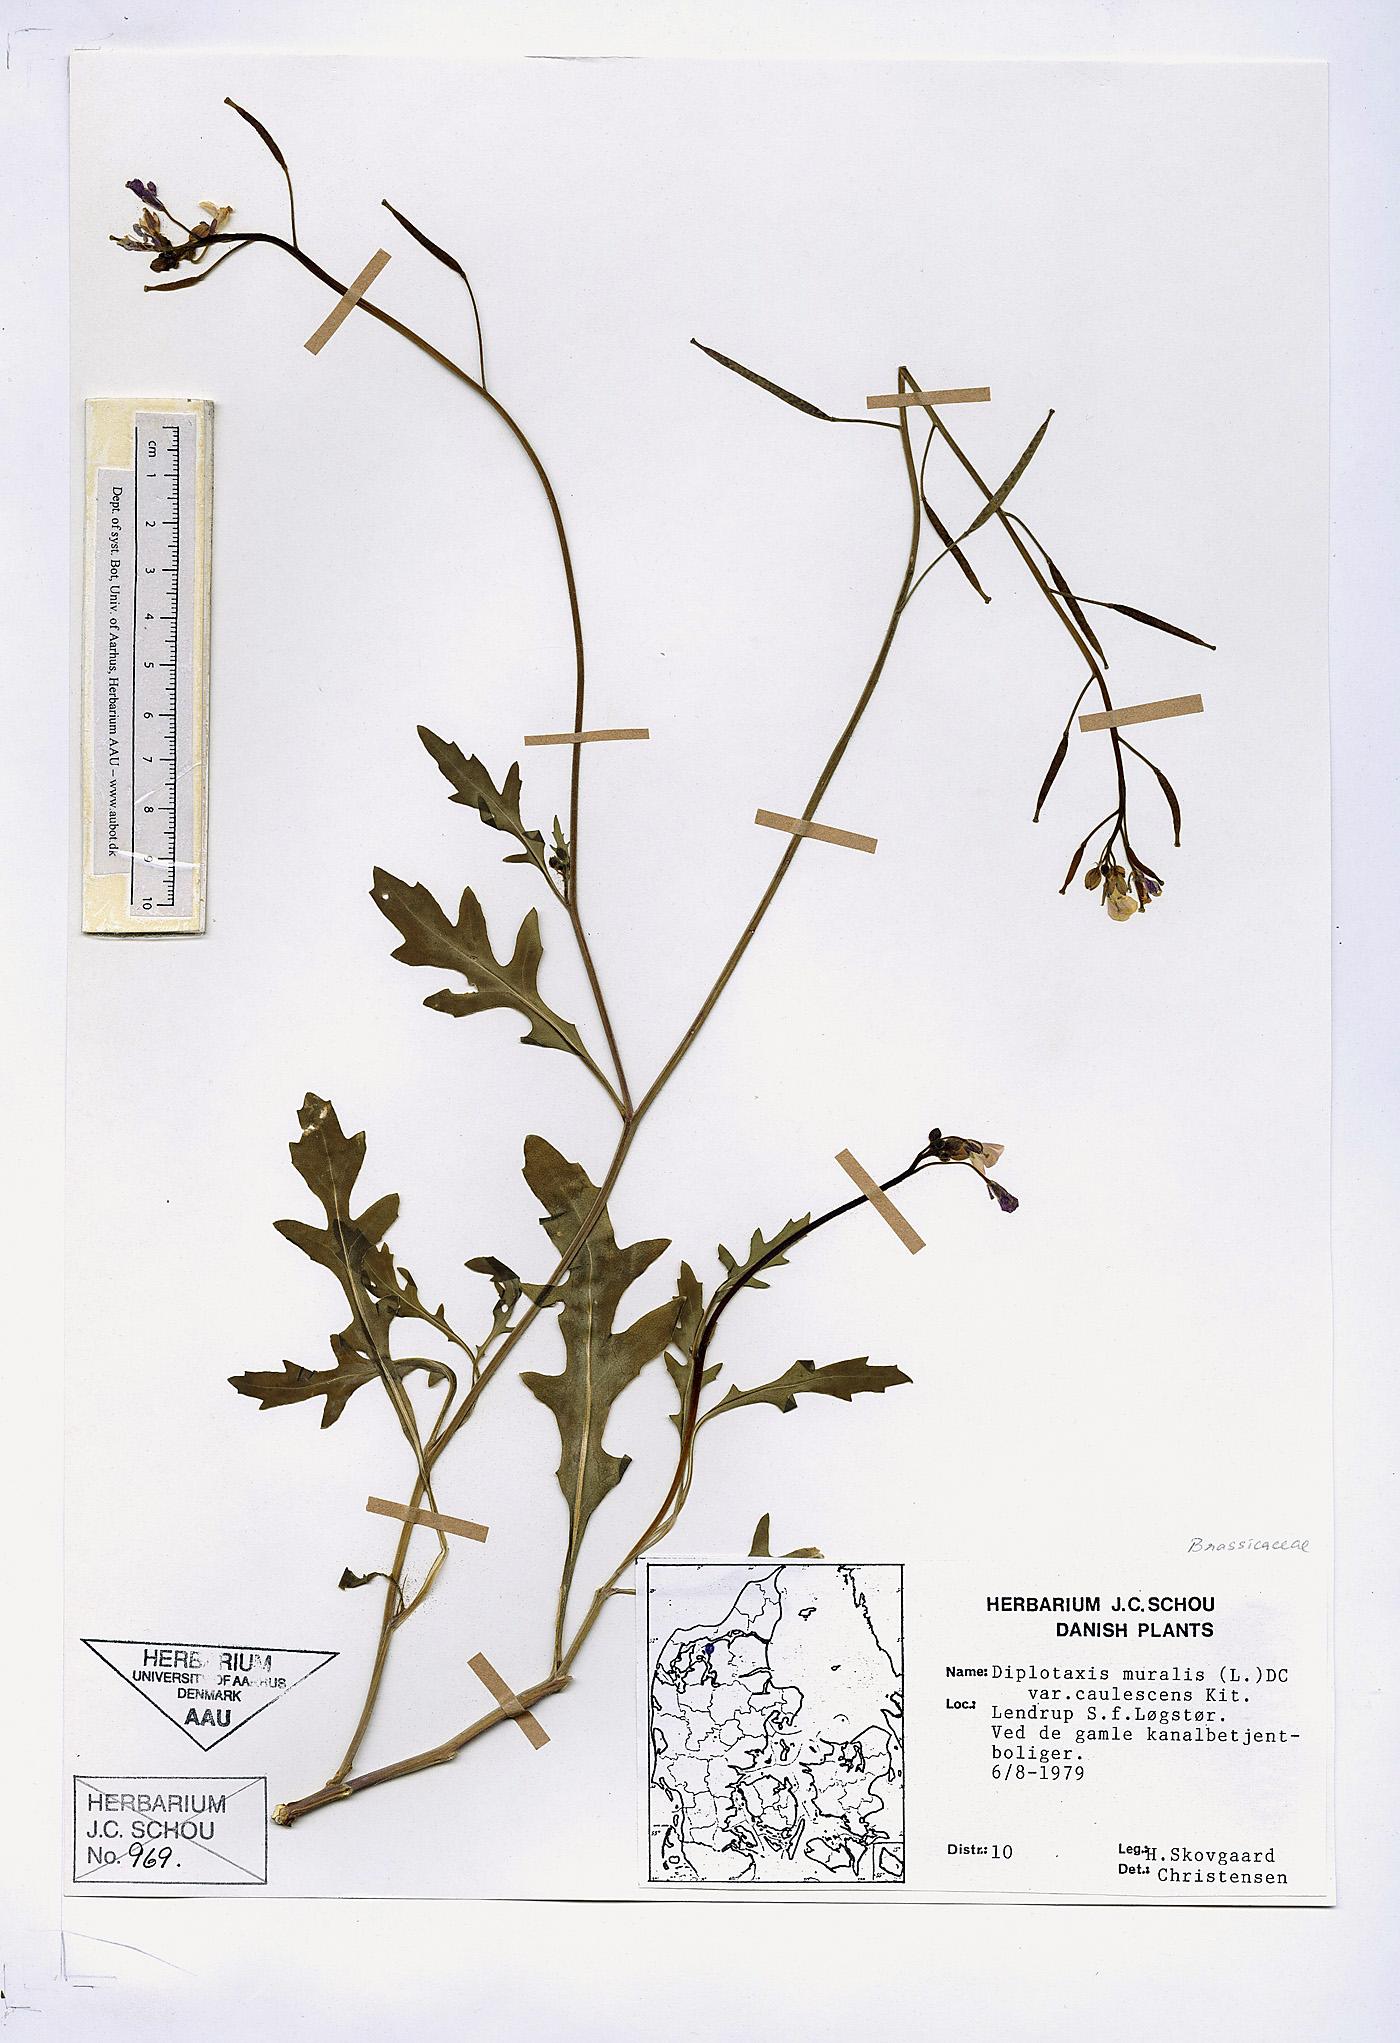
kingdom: Plantae
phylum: Tracheophyta
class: Magnoliopsida
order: Brassicales
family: Brassicaceae
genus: Diplotaxis
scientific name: Diplotaxis muralis
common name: Annual wall-rocket
